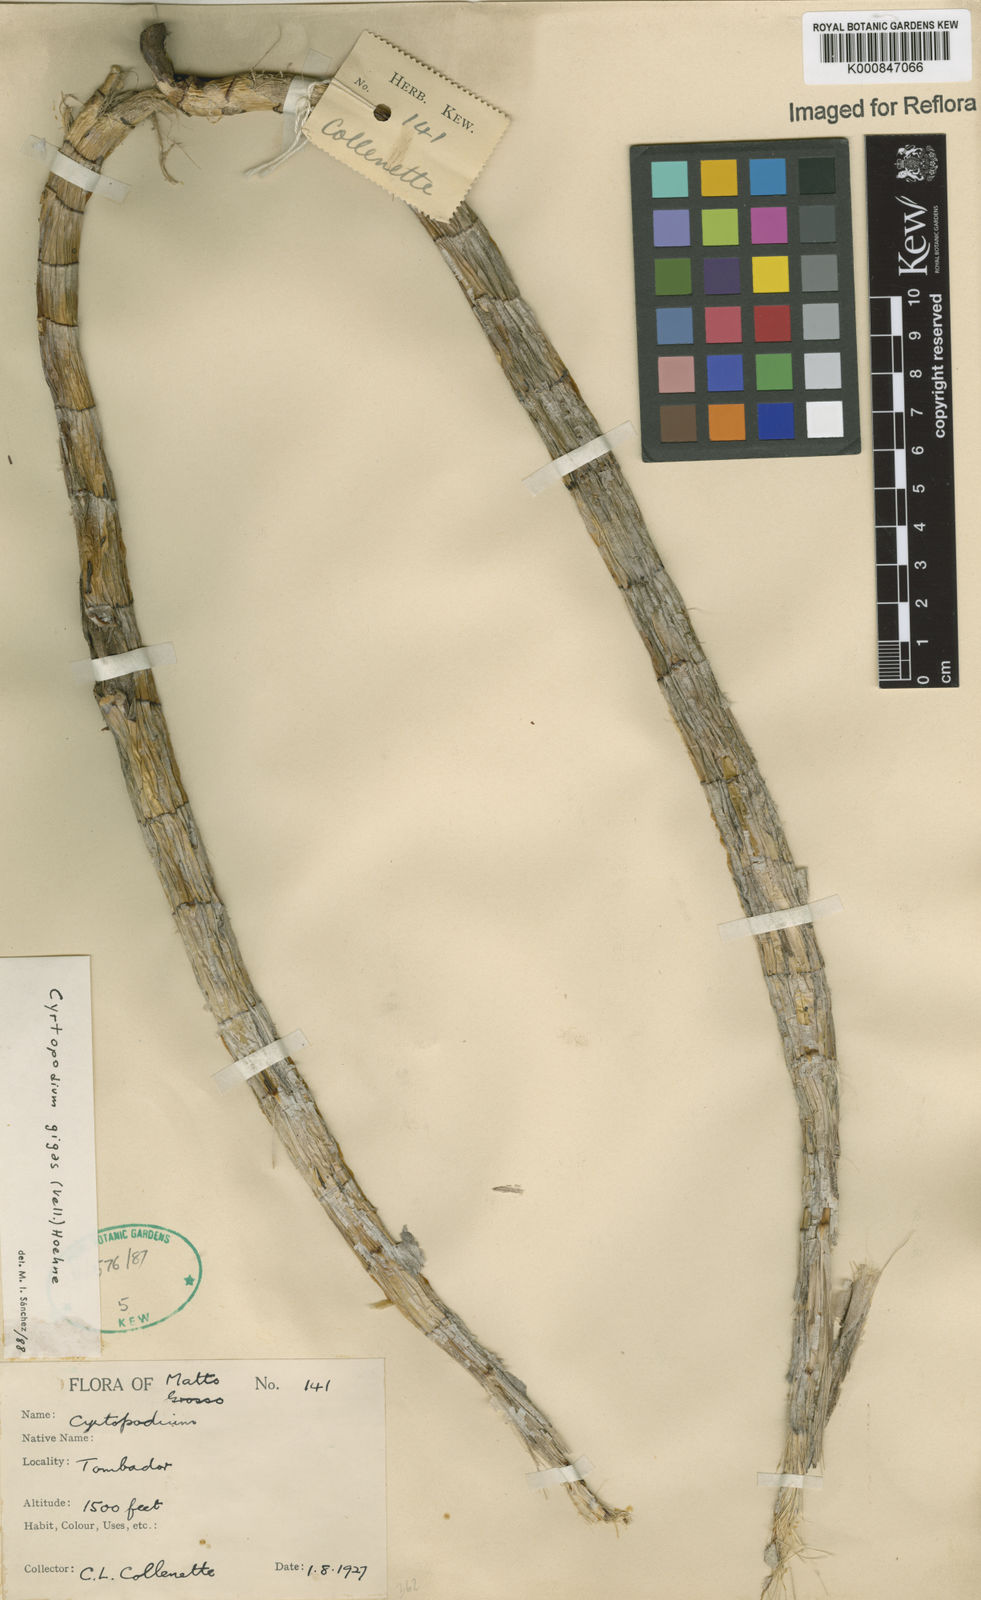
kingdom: Plantae
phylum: Tracheophyta
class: Liliopsida
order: Asparagales
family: Orchidaceae
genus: Cyrtopodium
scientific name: Cyrtopodium gigas
